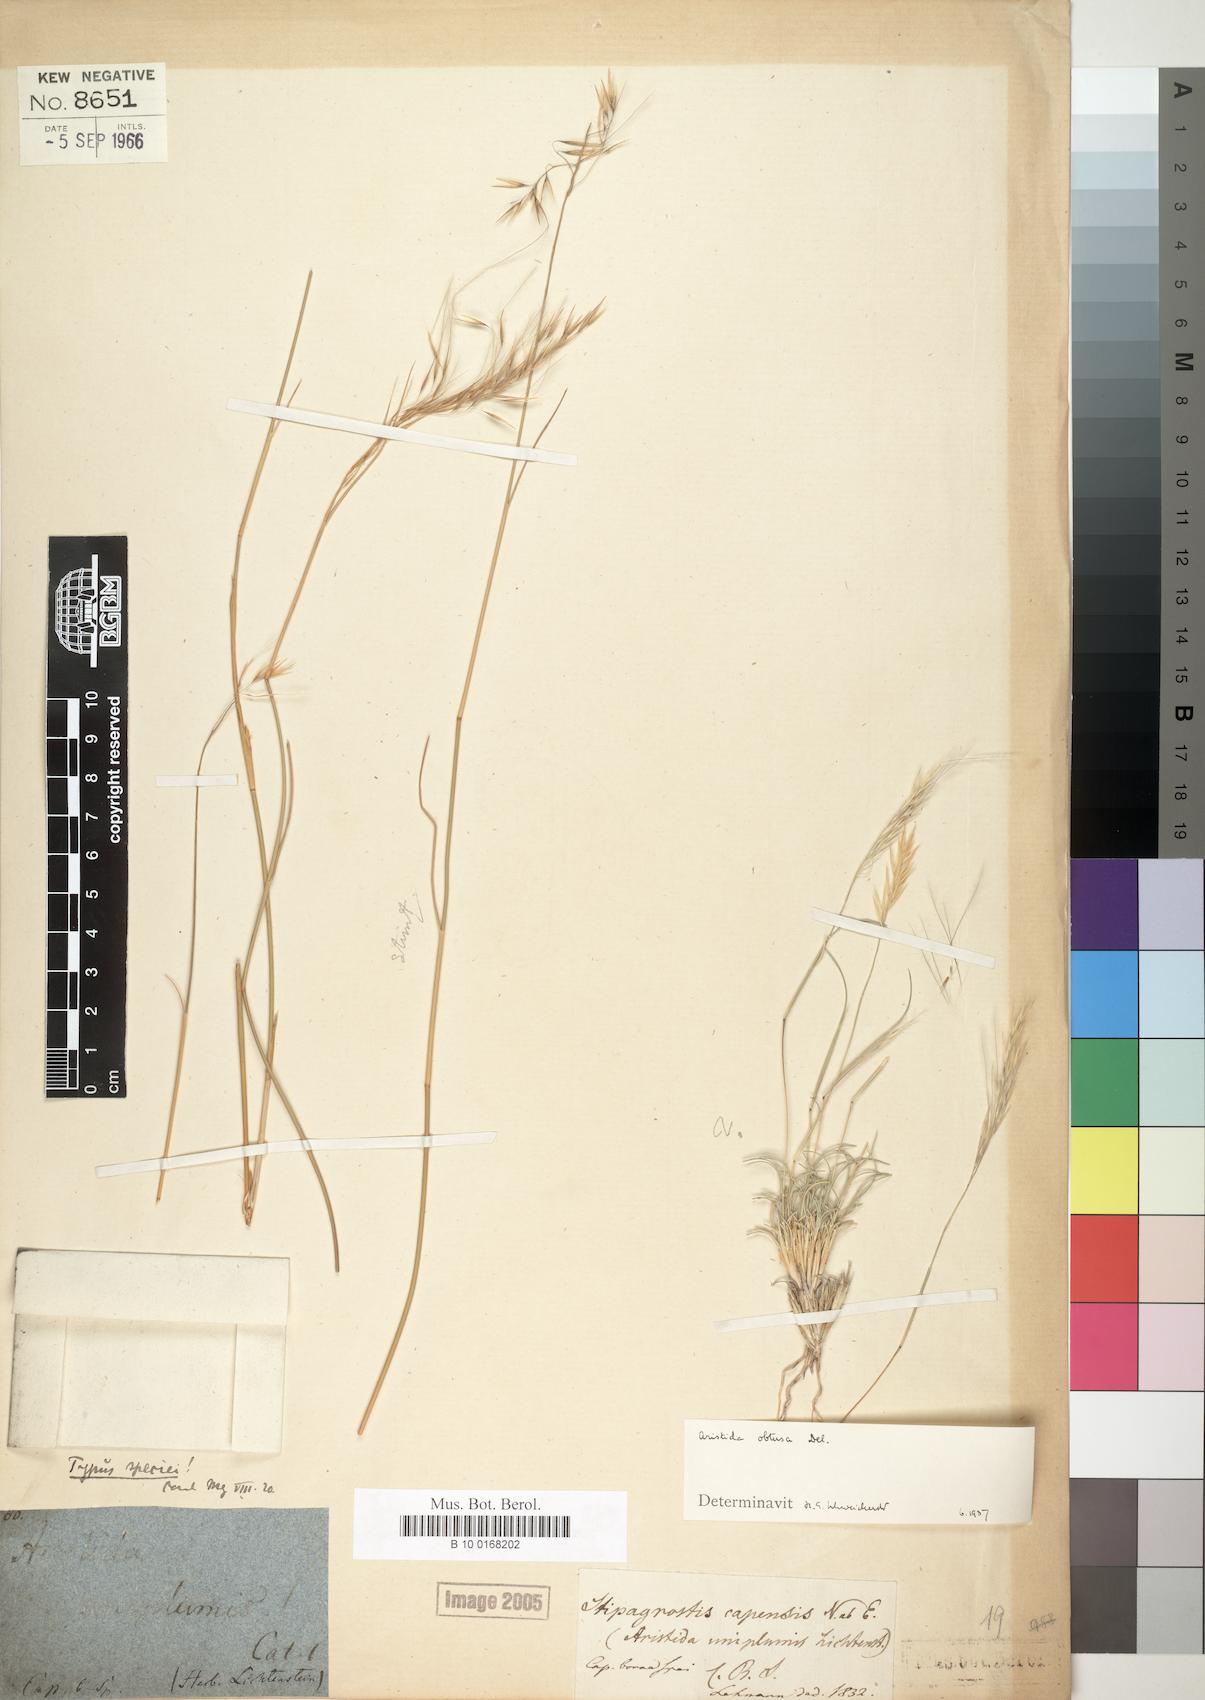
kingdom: Plantae
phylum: Tracheophyta
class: Liliopsida
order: Poales
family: Poaceae
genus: Stipagrostis
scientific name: Stipagrostis uniplumis
